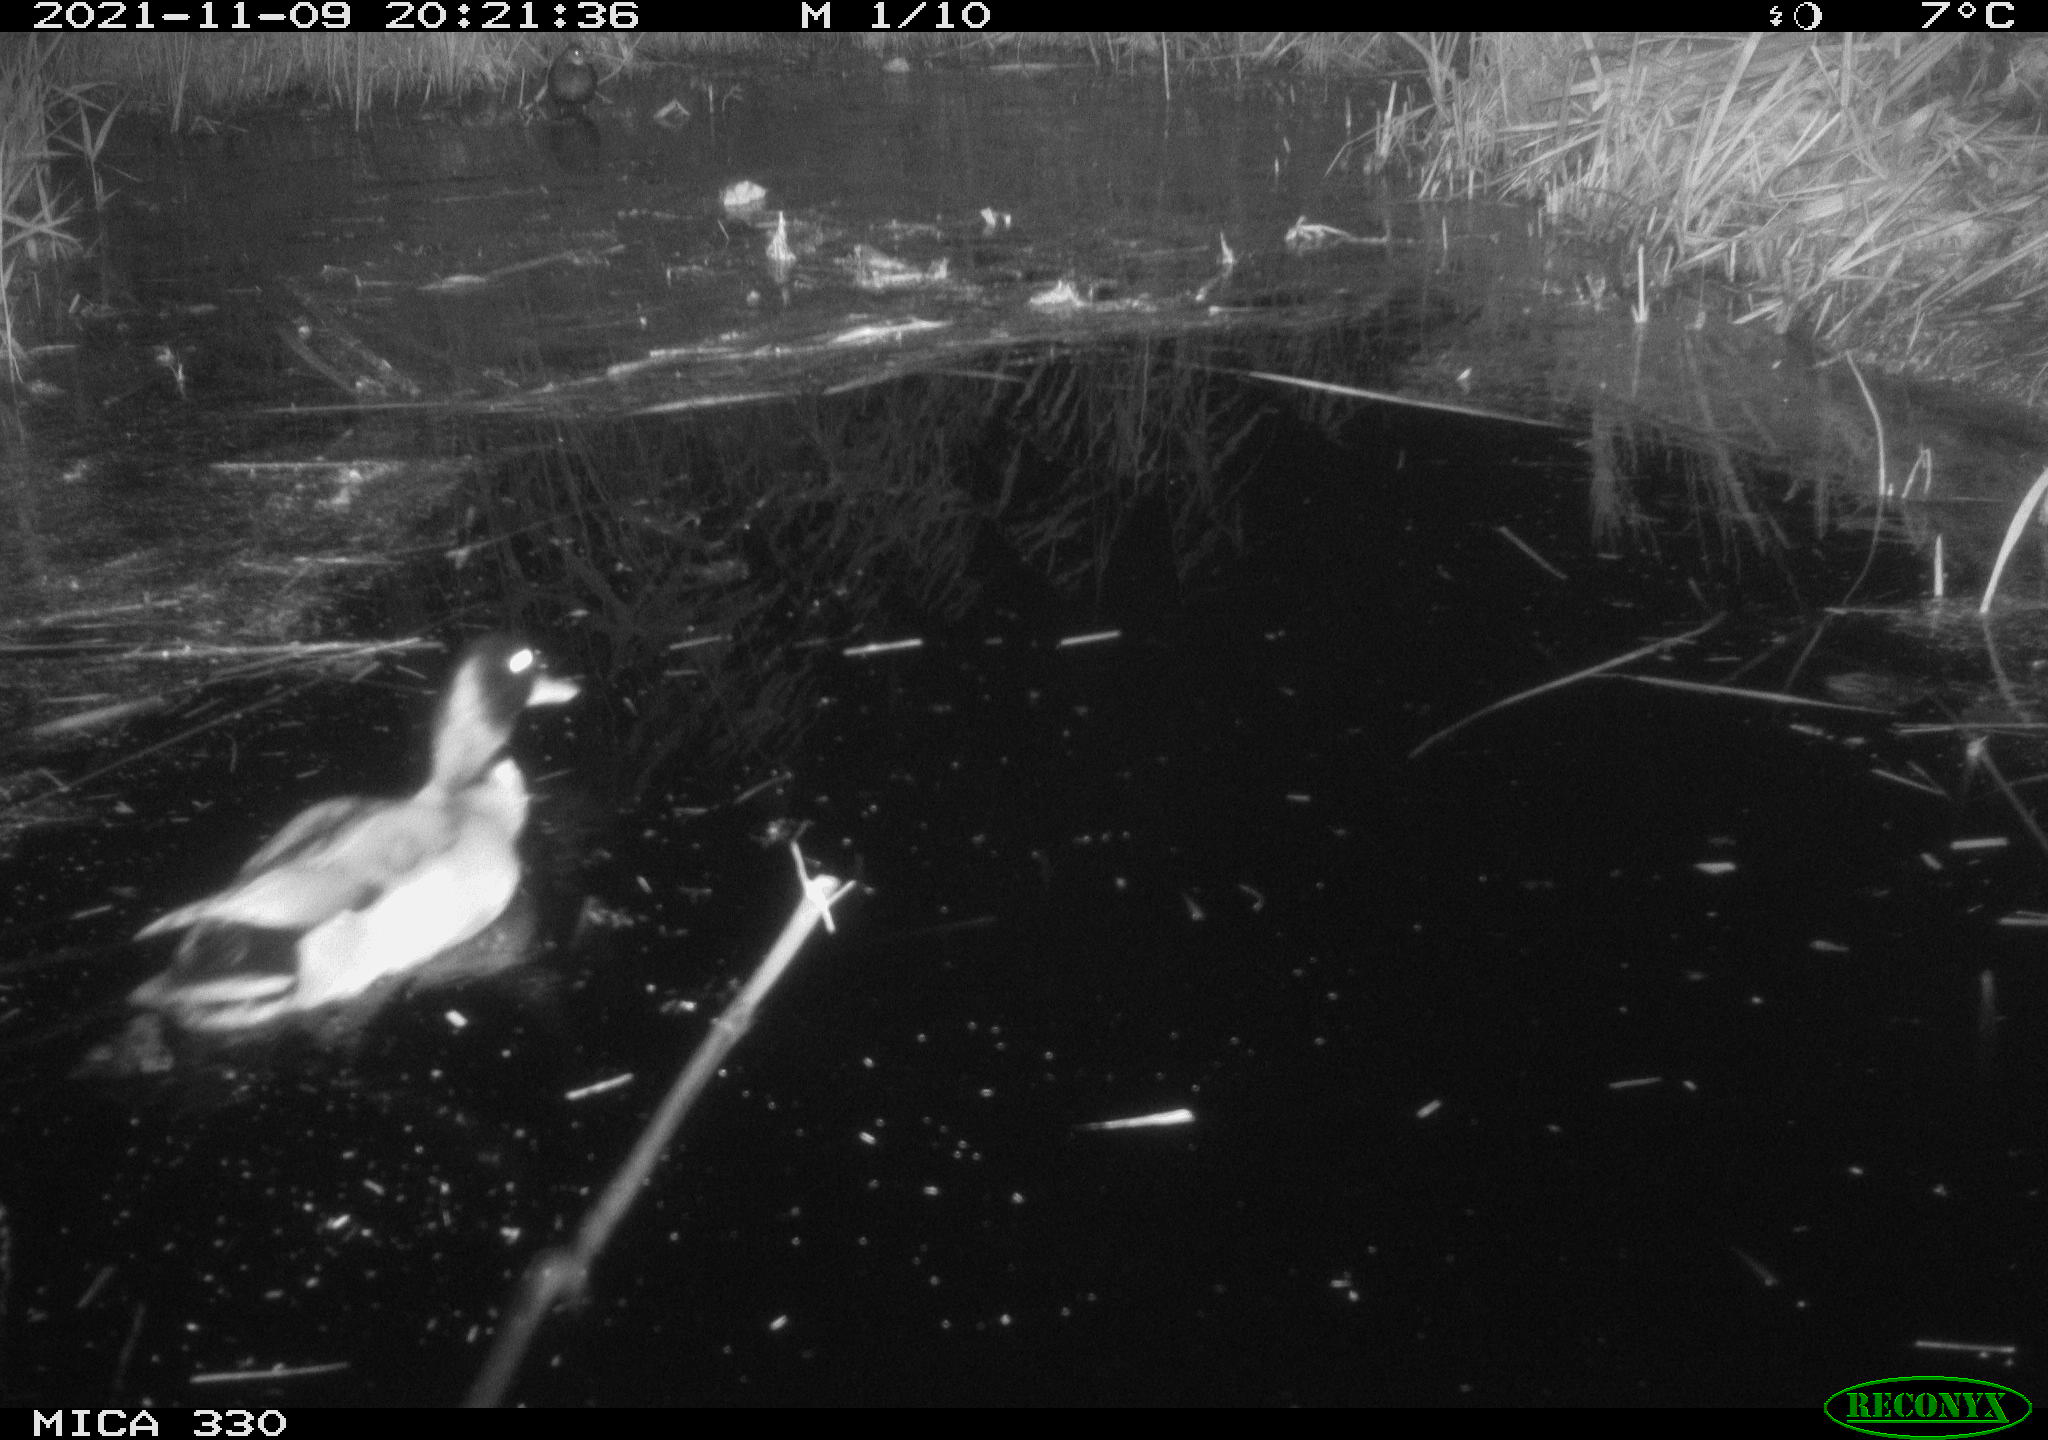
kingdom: Animalia
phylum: Chordata
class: Aves
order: Anseriformes
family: Anatidae
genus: Anas
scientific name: Anas platyrhynchos
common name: Mallard
